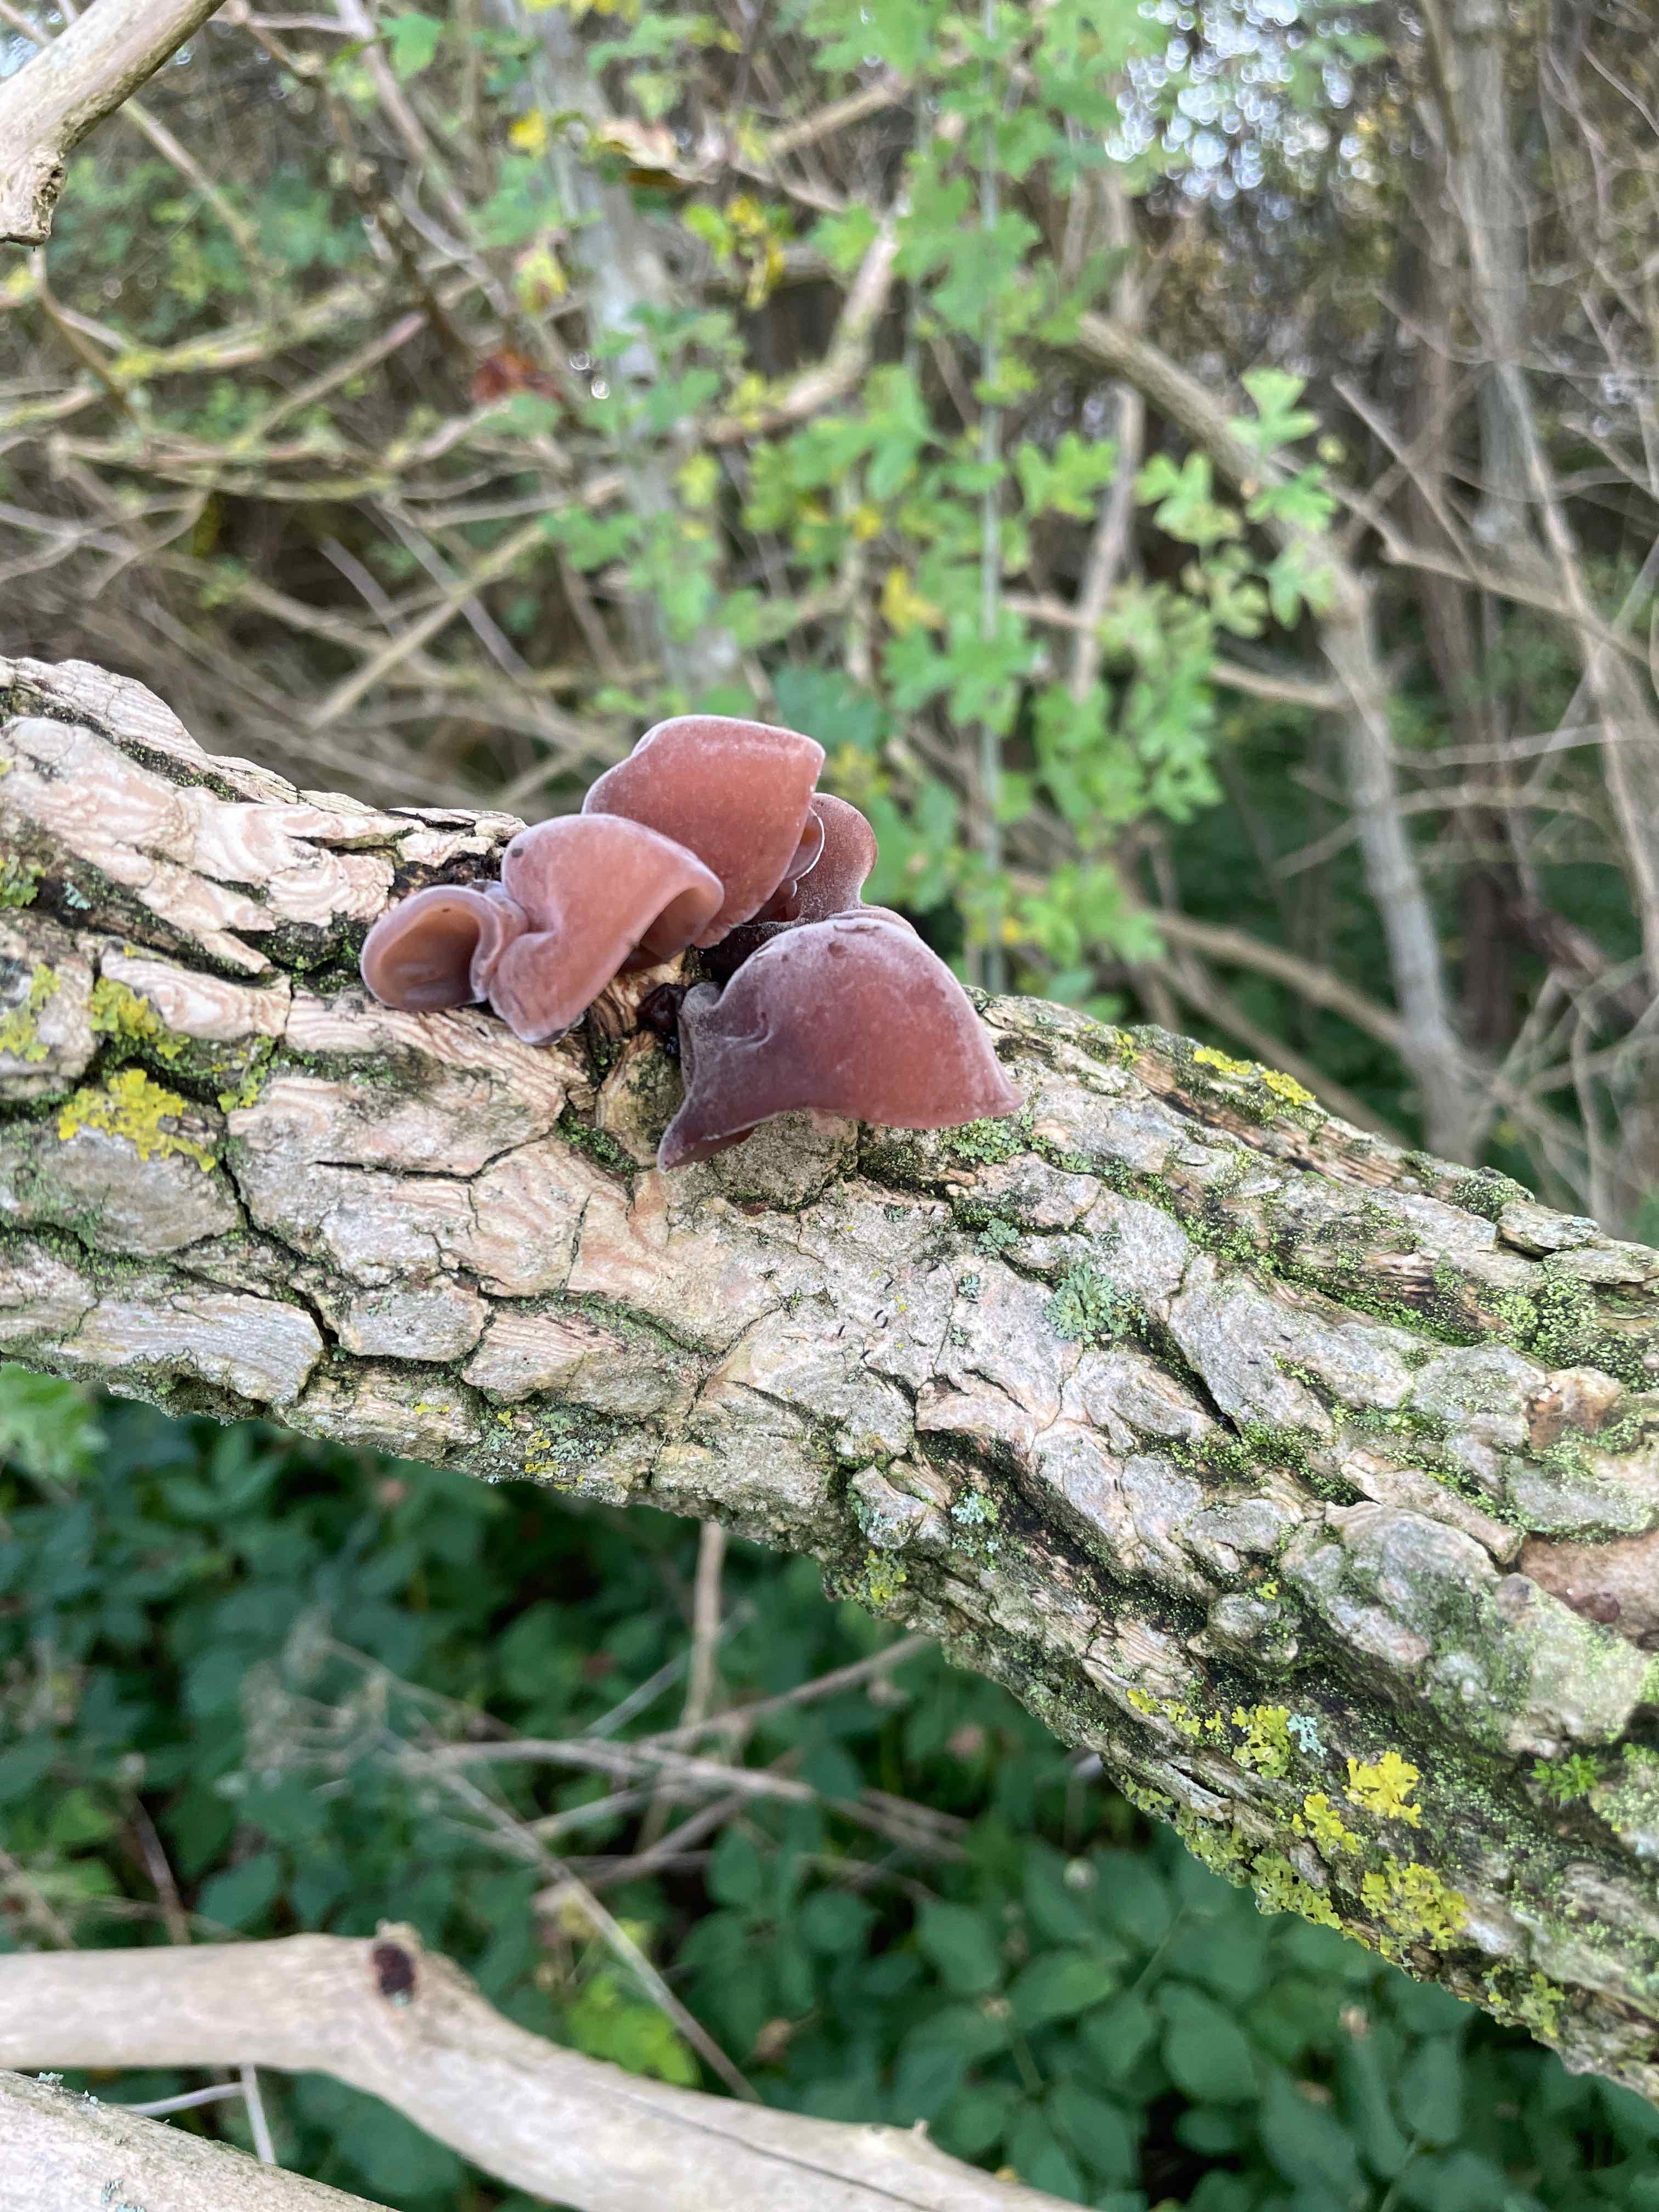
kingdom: Fungi
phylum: Basidiomycota
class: Agaricomycetes
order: Auriculariales
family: Auriculariaceae
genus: Auricularia
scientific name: Auricularia auricula-judae
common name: almindelig judasøre
